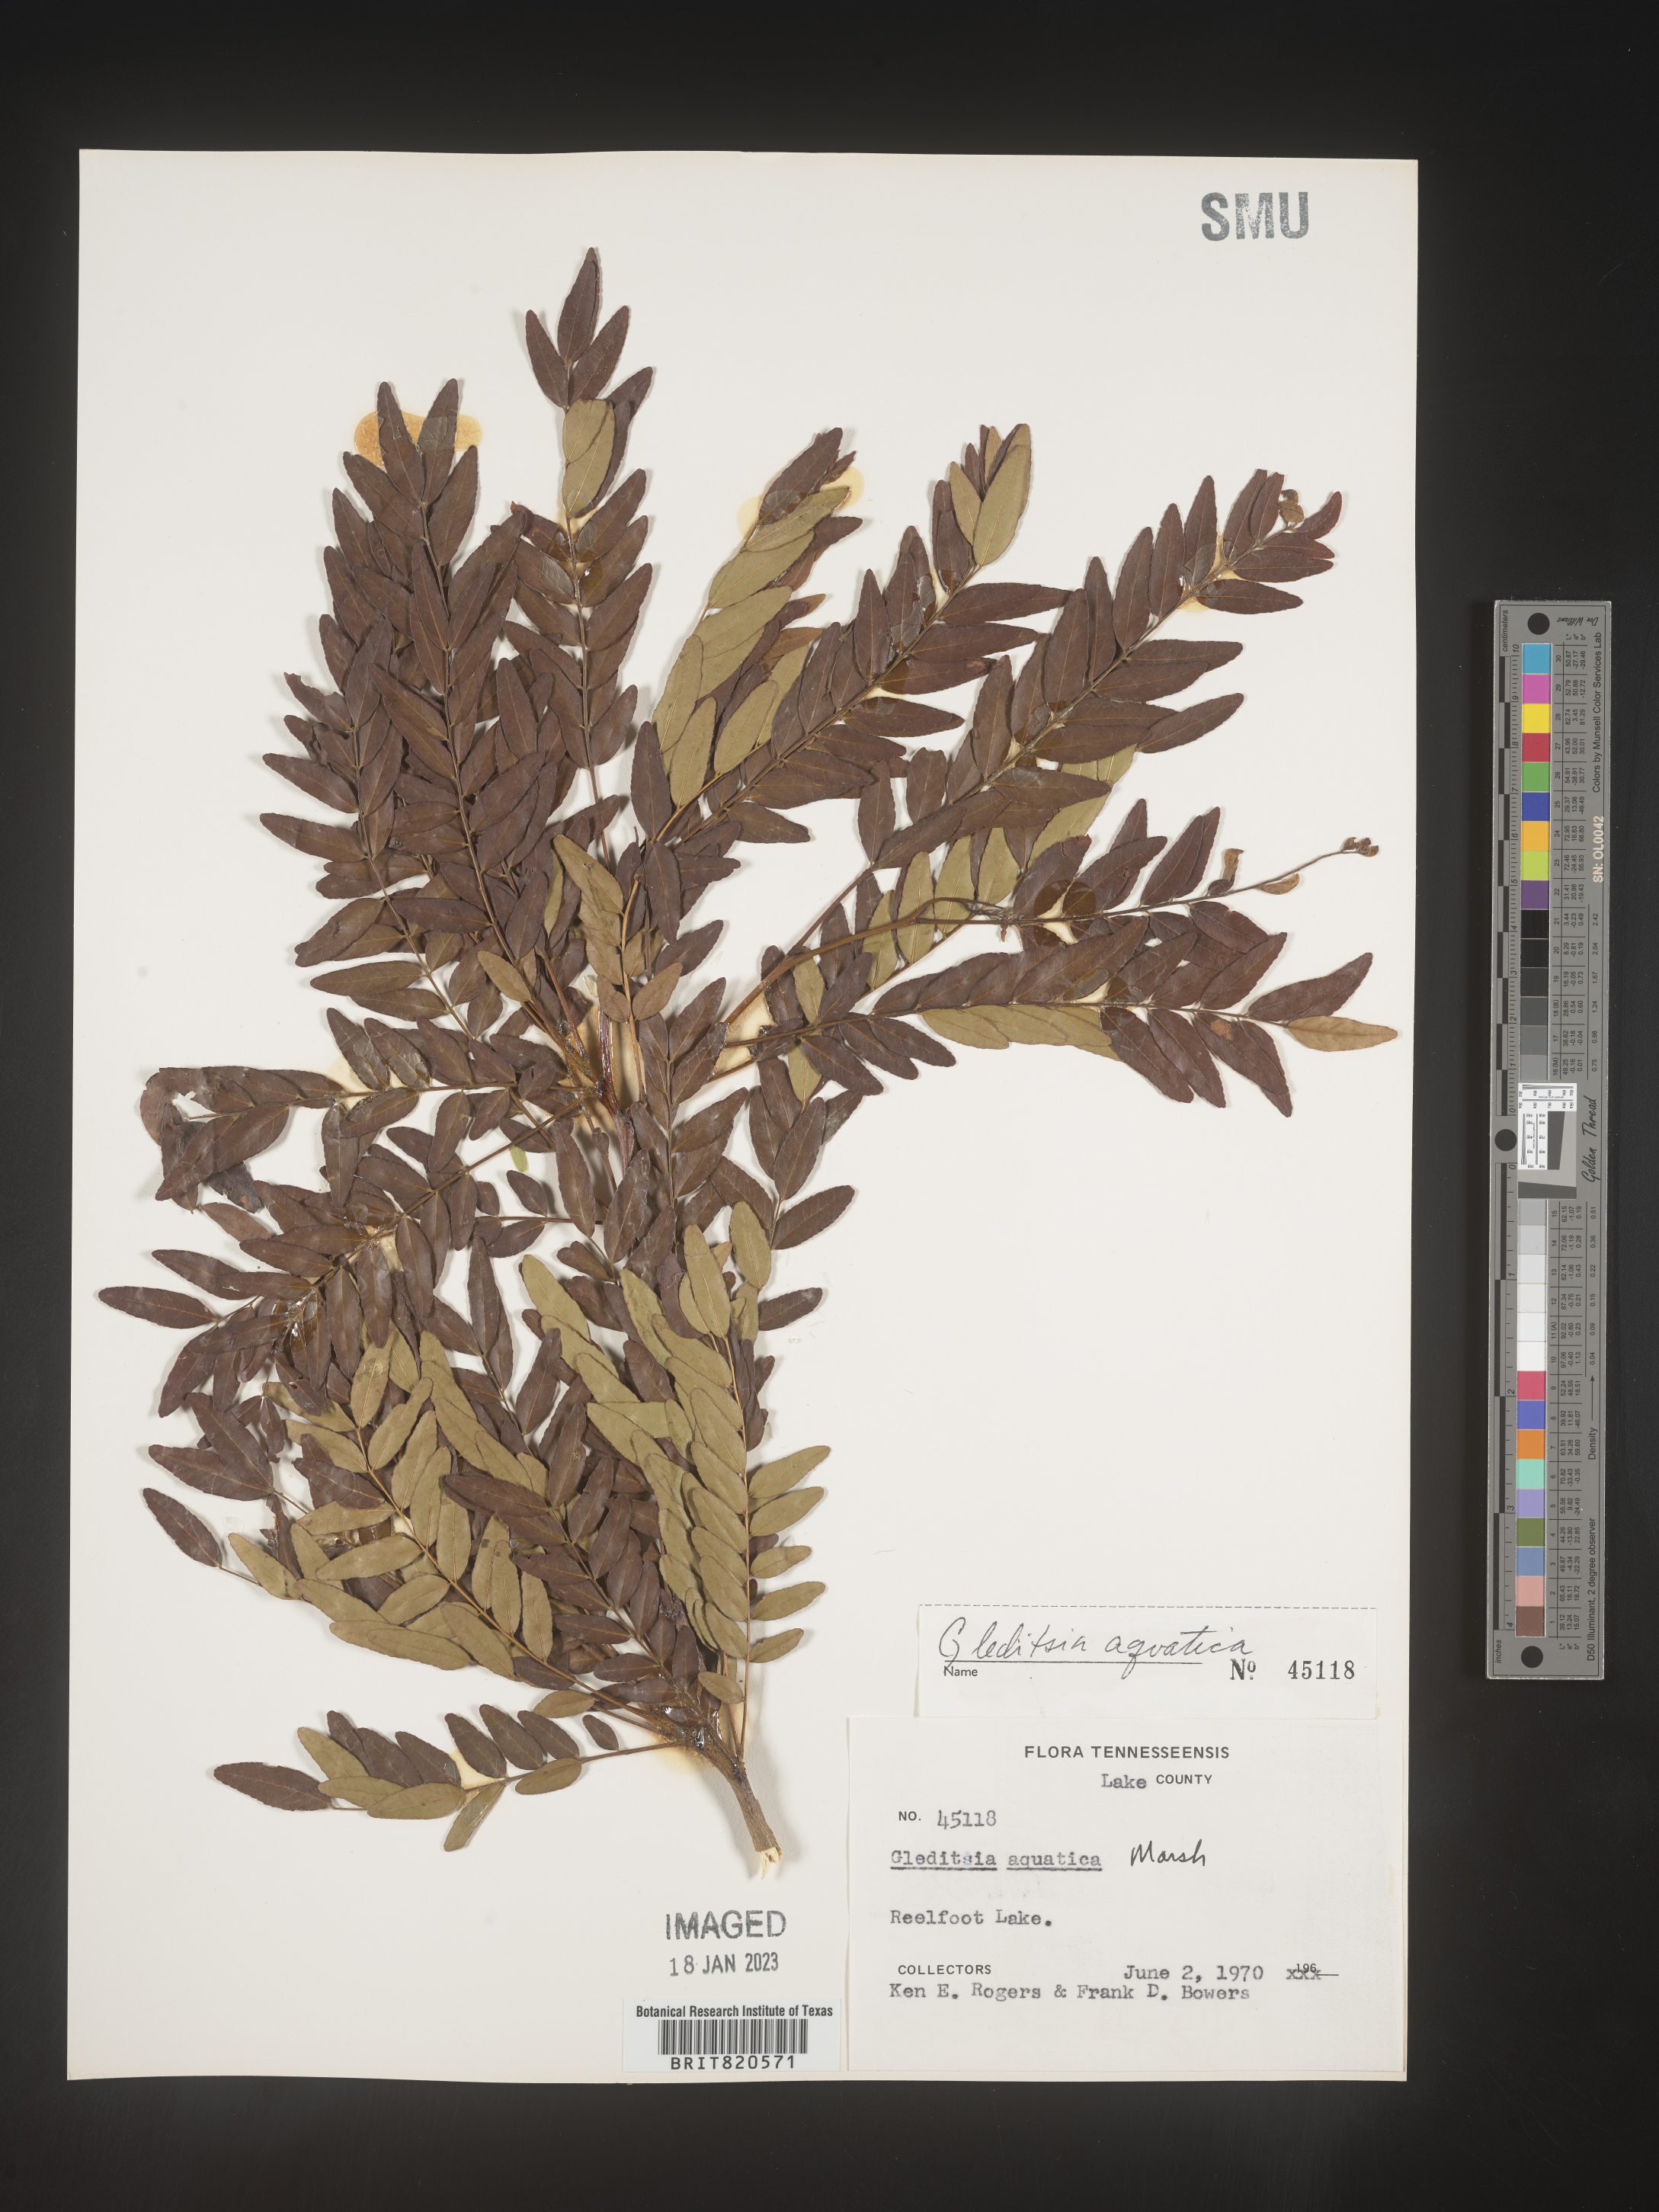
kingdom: Plantae
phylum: Tracheophyta
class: Magnoliopsida
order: Fabales
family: Fabaceae
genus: Gleditsia
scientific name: Gleditsia aquatica
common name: Swamp-locust
